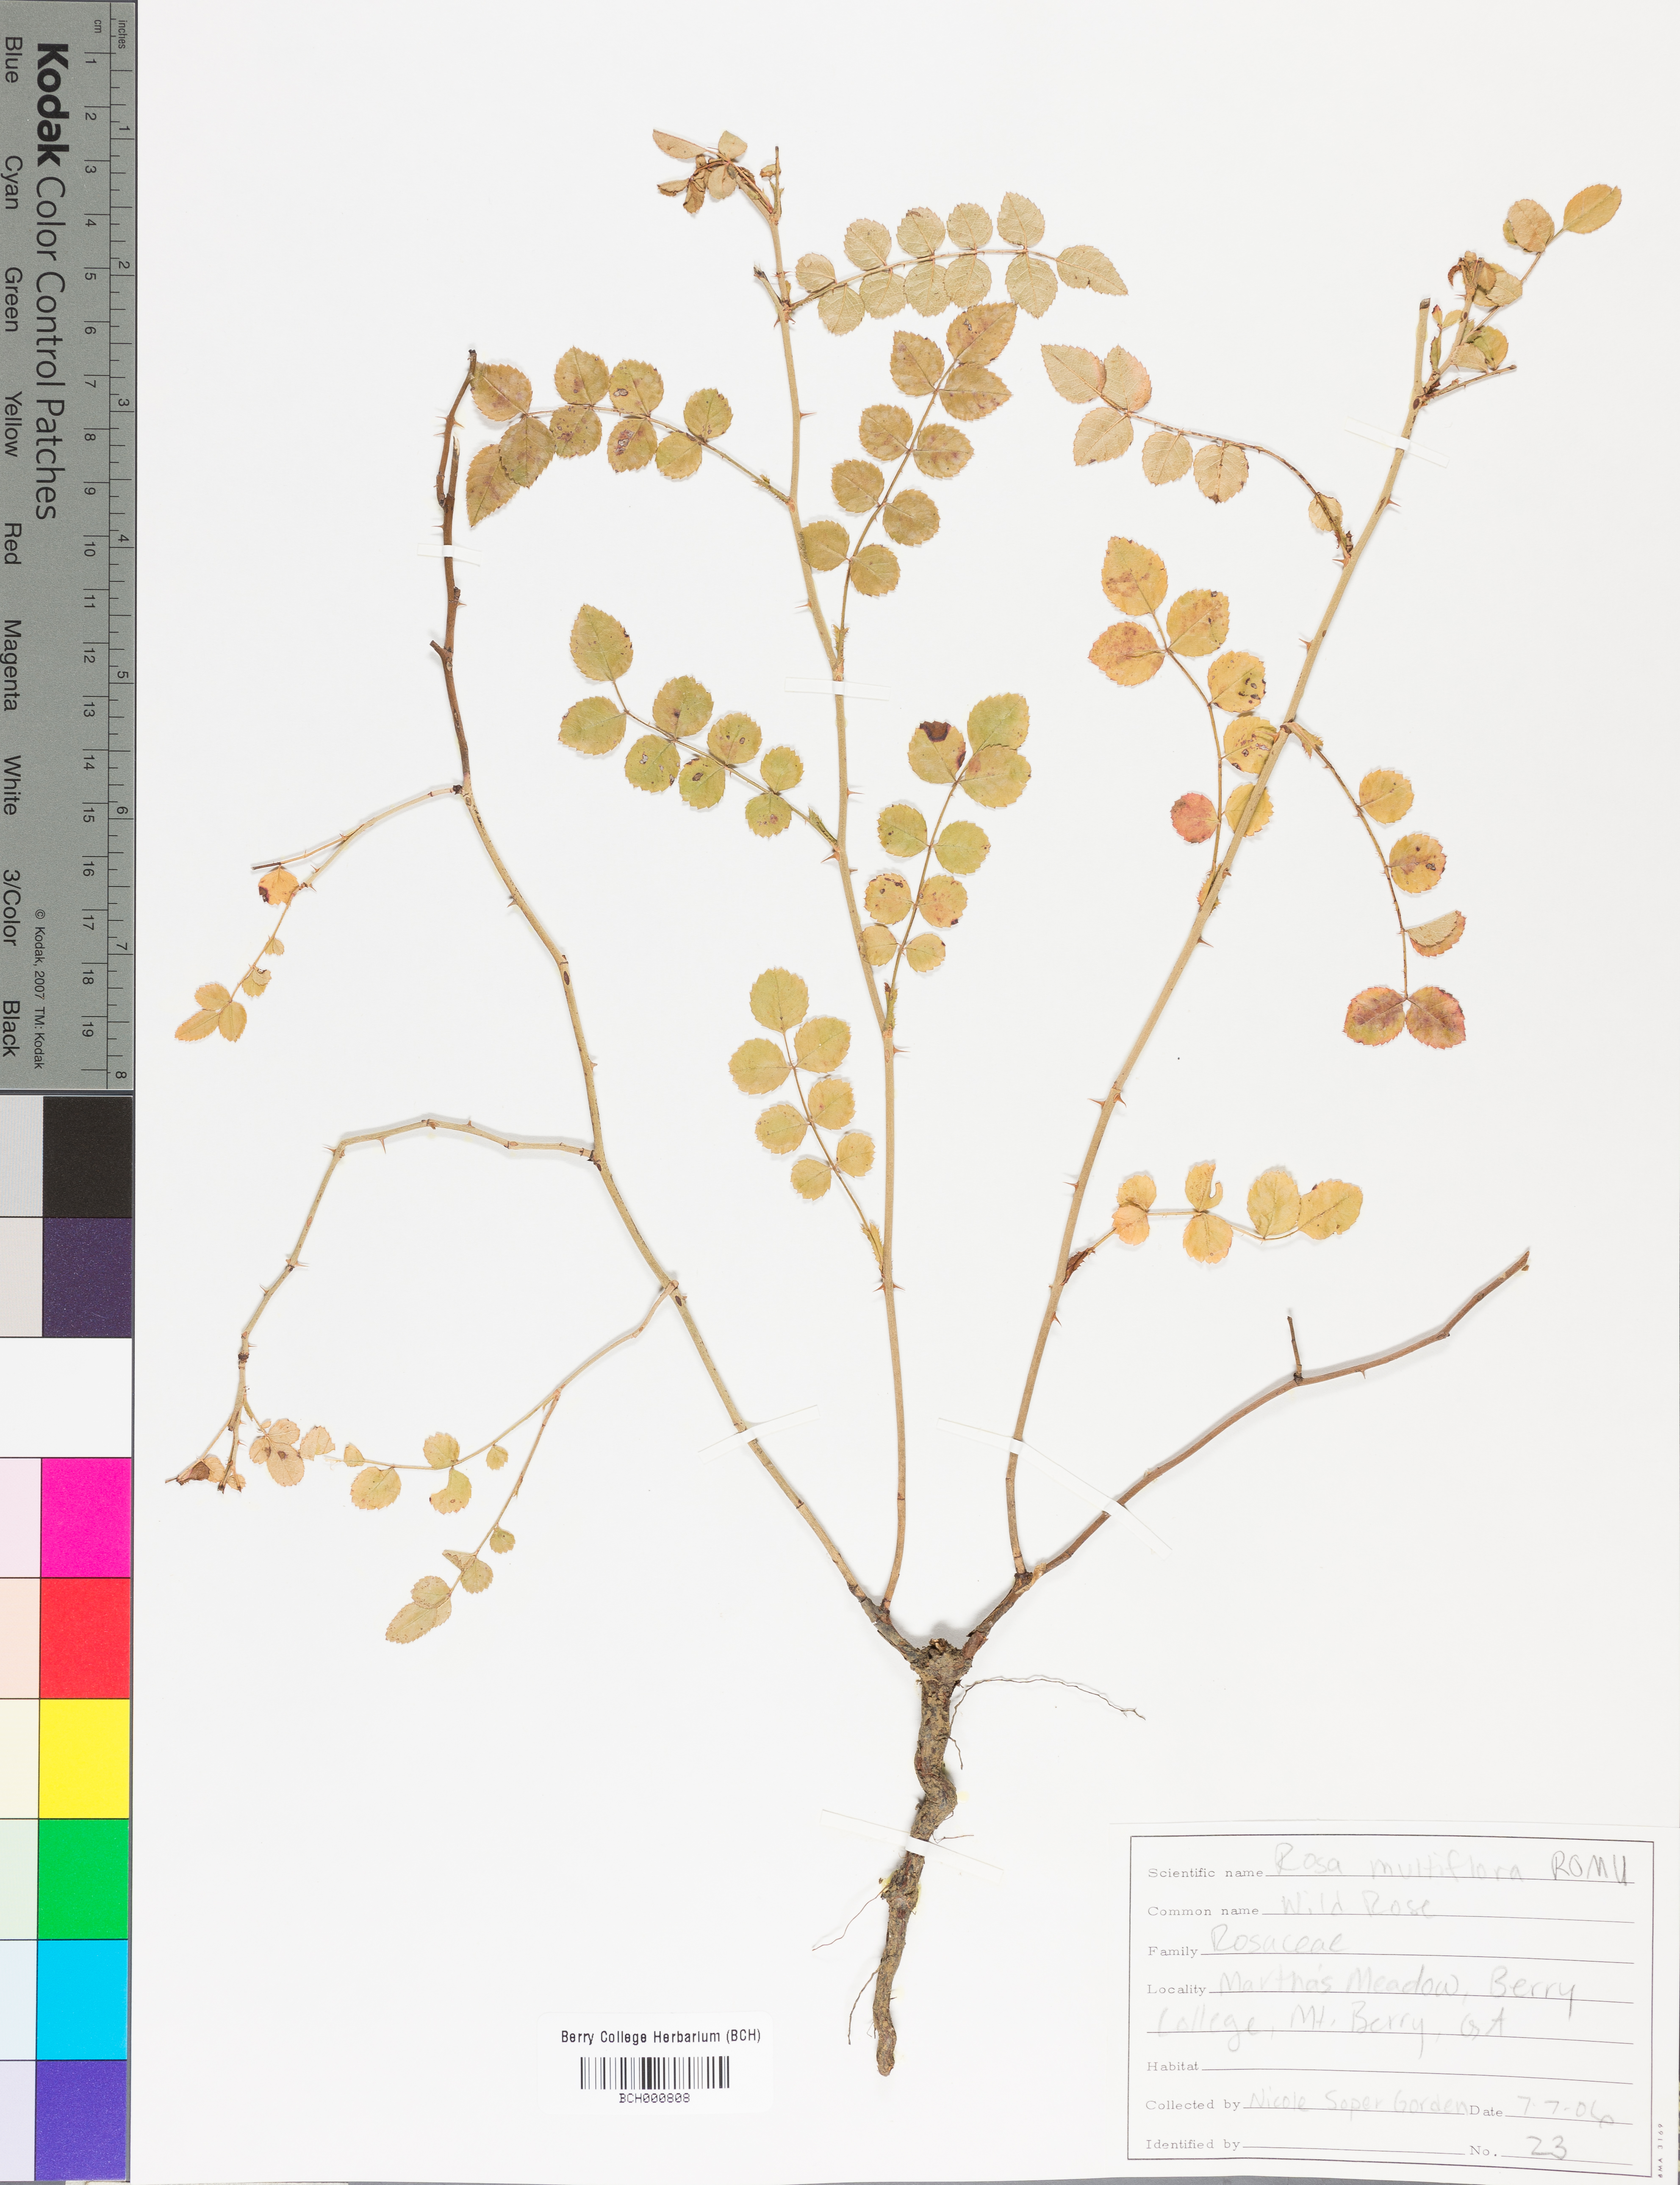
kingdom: Plantae
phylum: Tracheophyta
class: Magnoliopsida
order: Rosales
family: Rosaceae
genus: Rosa
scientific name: Rosa multiflora
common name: Multiflora rose
